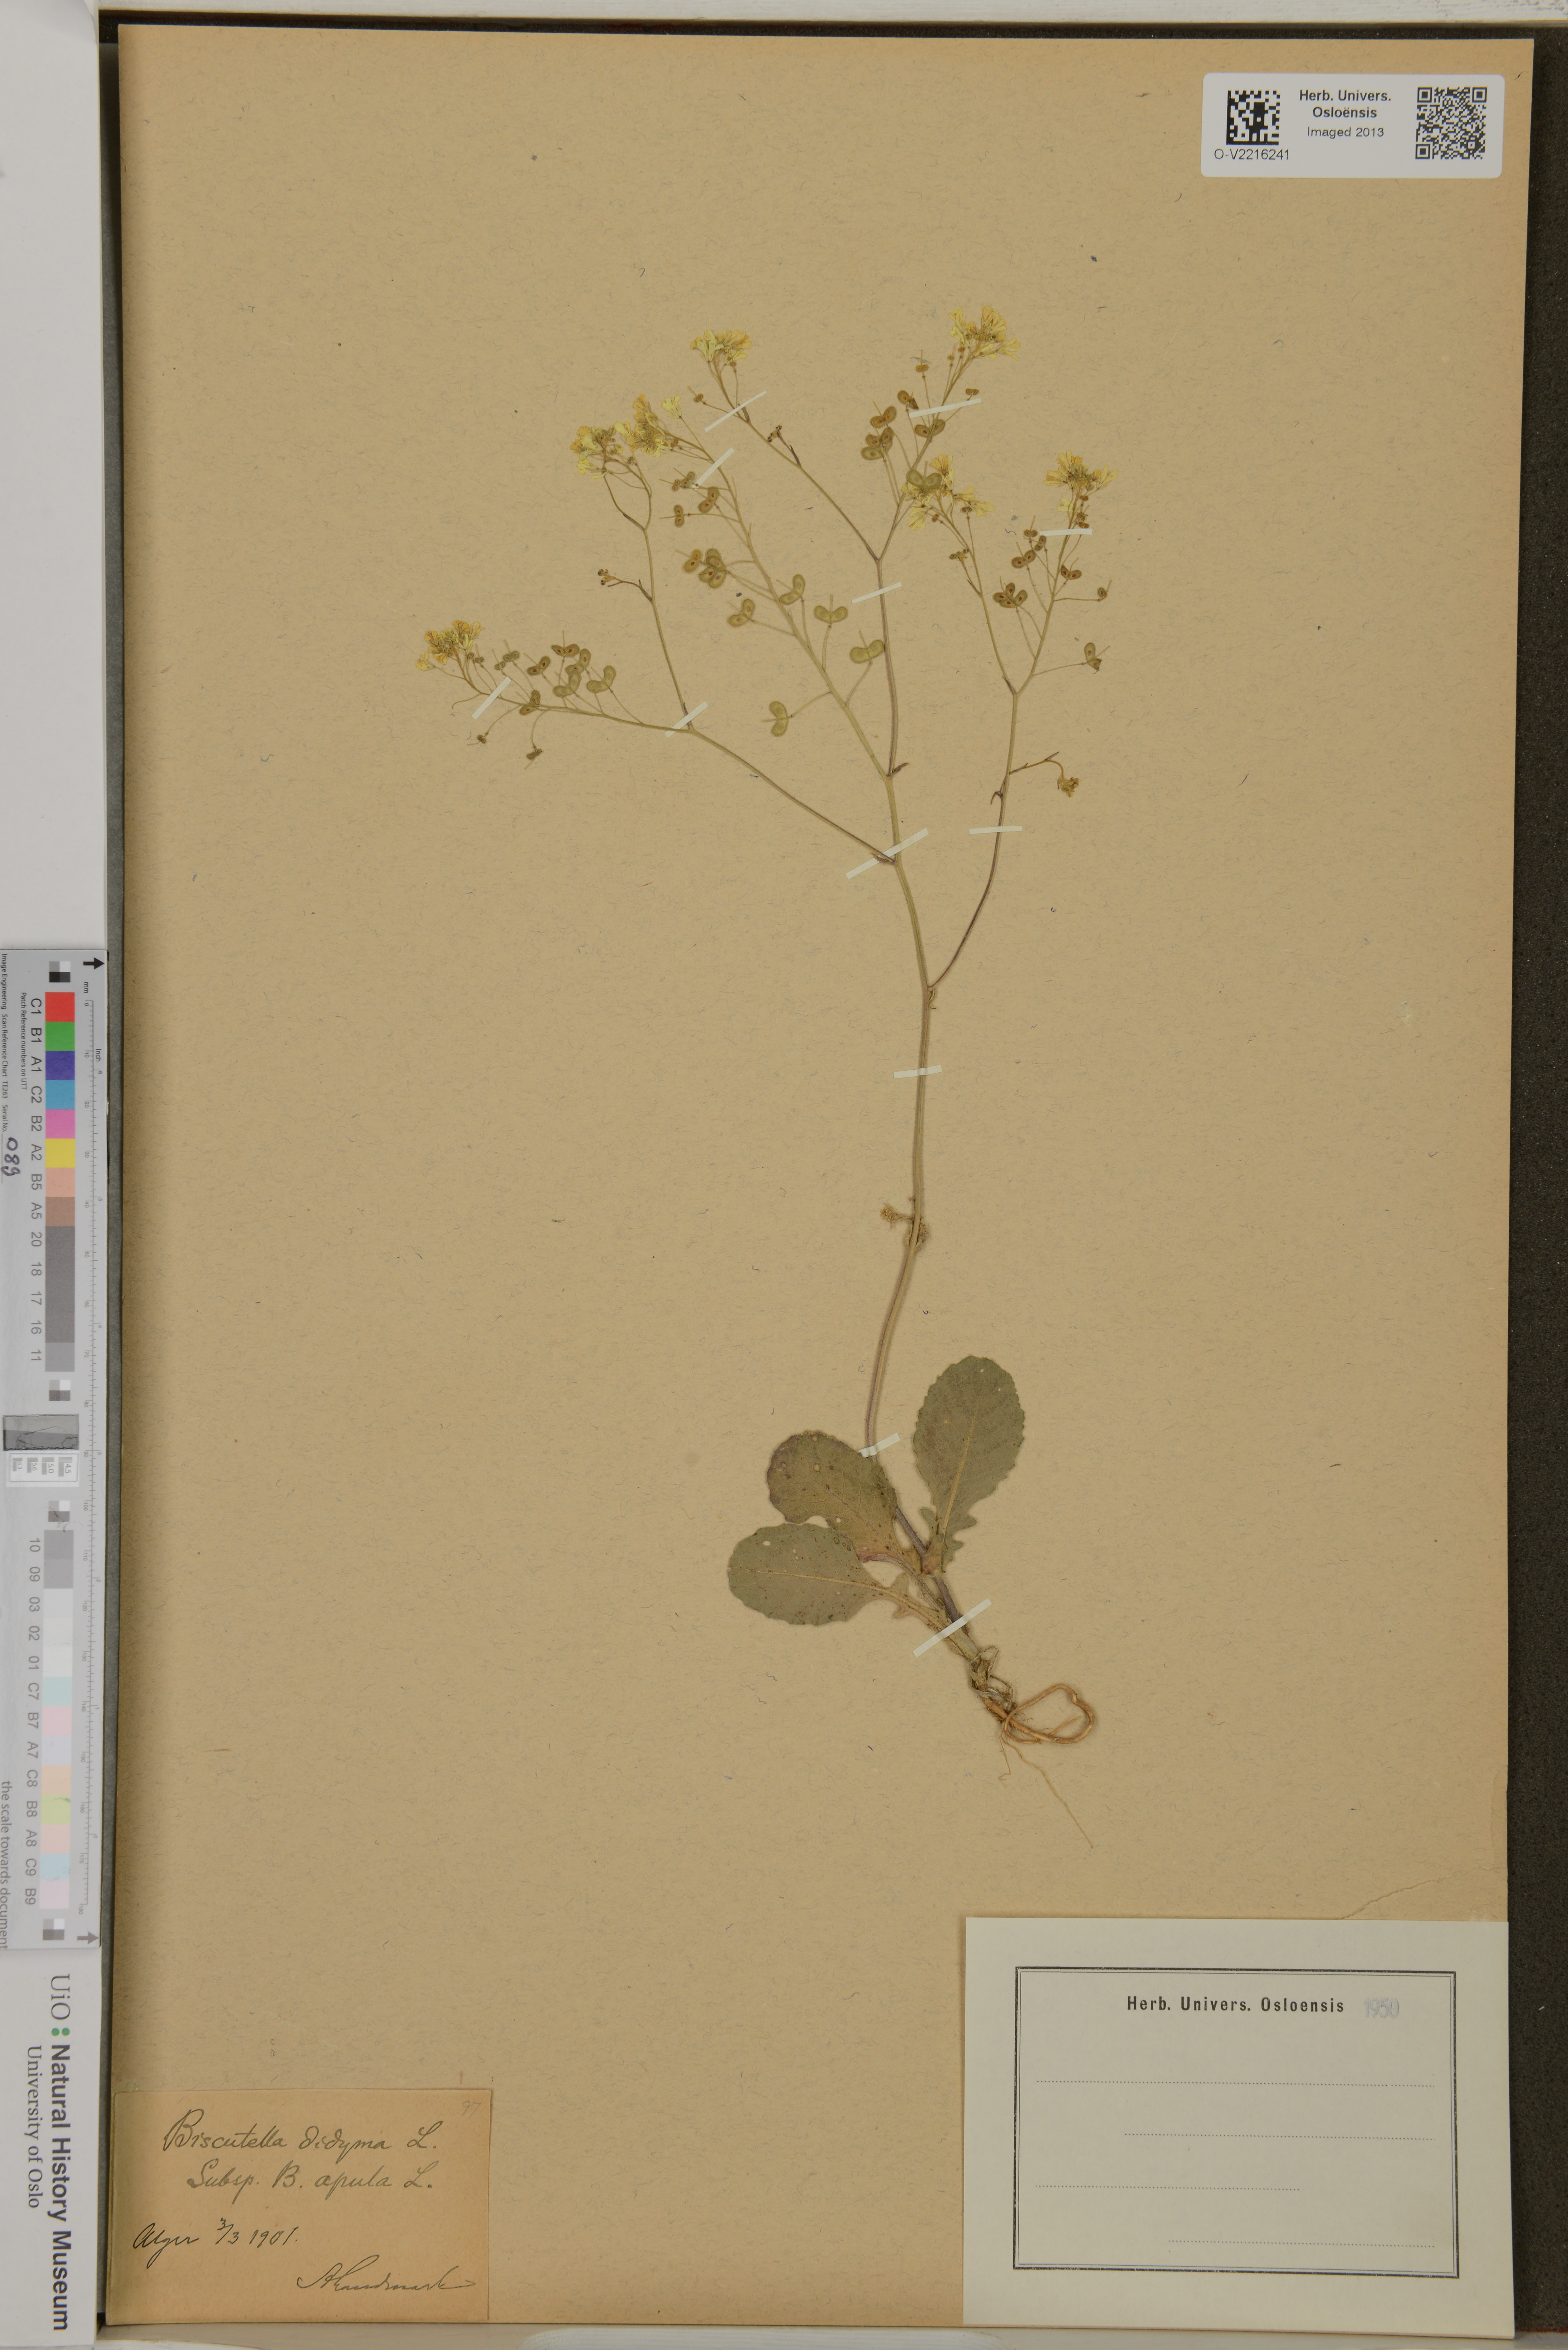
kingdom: Plantae
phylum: Tracheophyta
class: Magnoliopsida
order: Brassicales
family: Brassicaceae
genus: Biscutella
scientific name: Biscutella didyma
